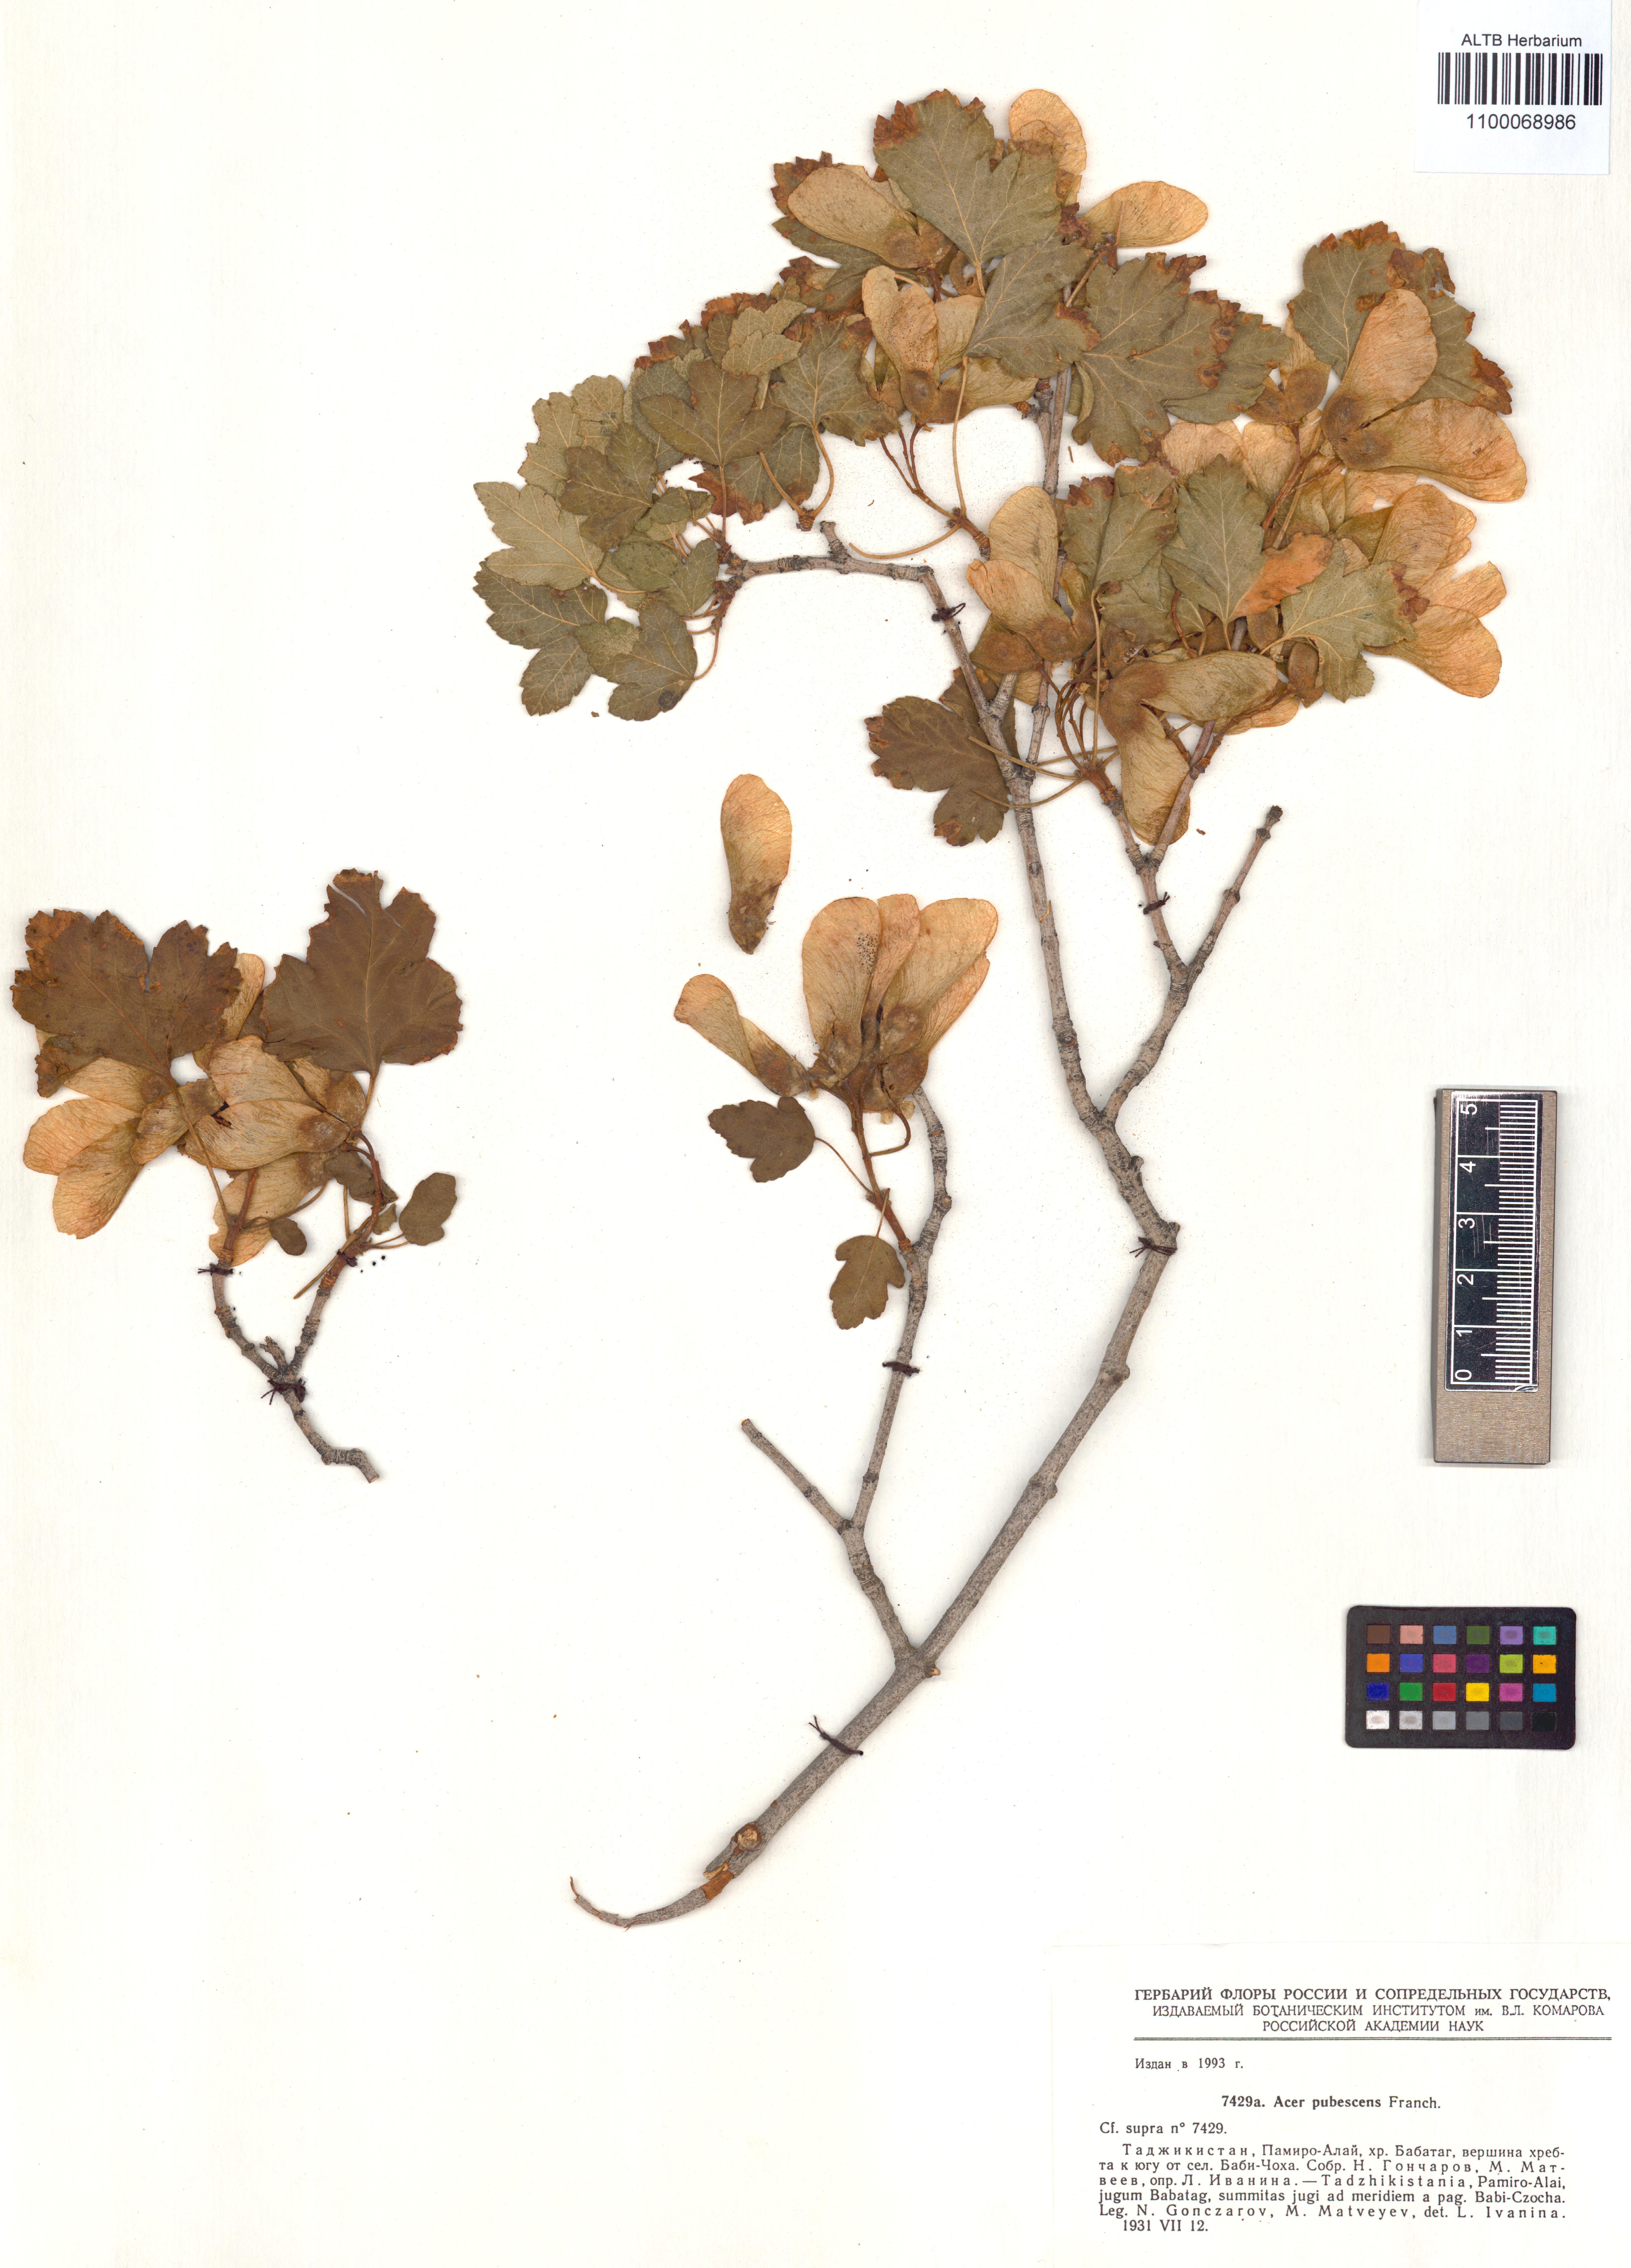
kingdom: Plantae
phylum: Tracheophyta
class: Magnoliopsida
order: Sapindales
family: Sapindaceae
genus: Acer
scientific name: Acer pentapomicum
